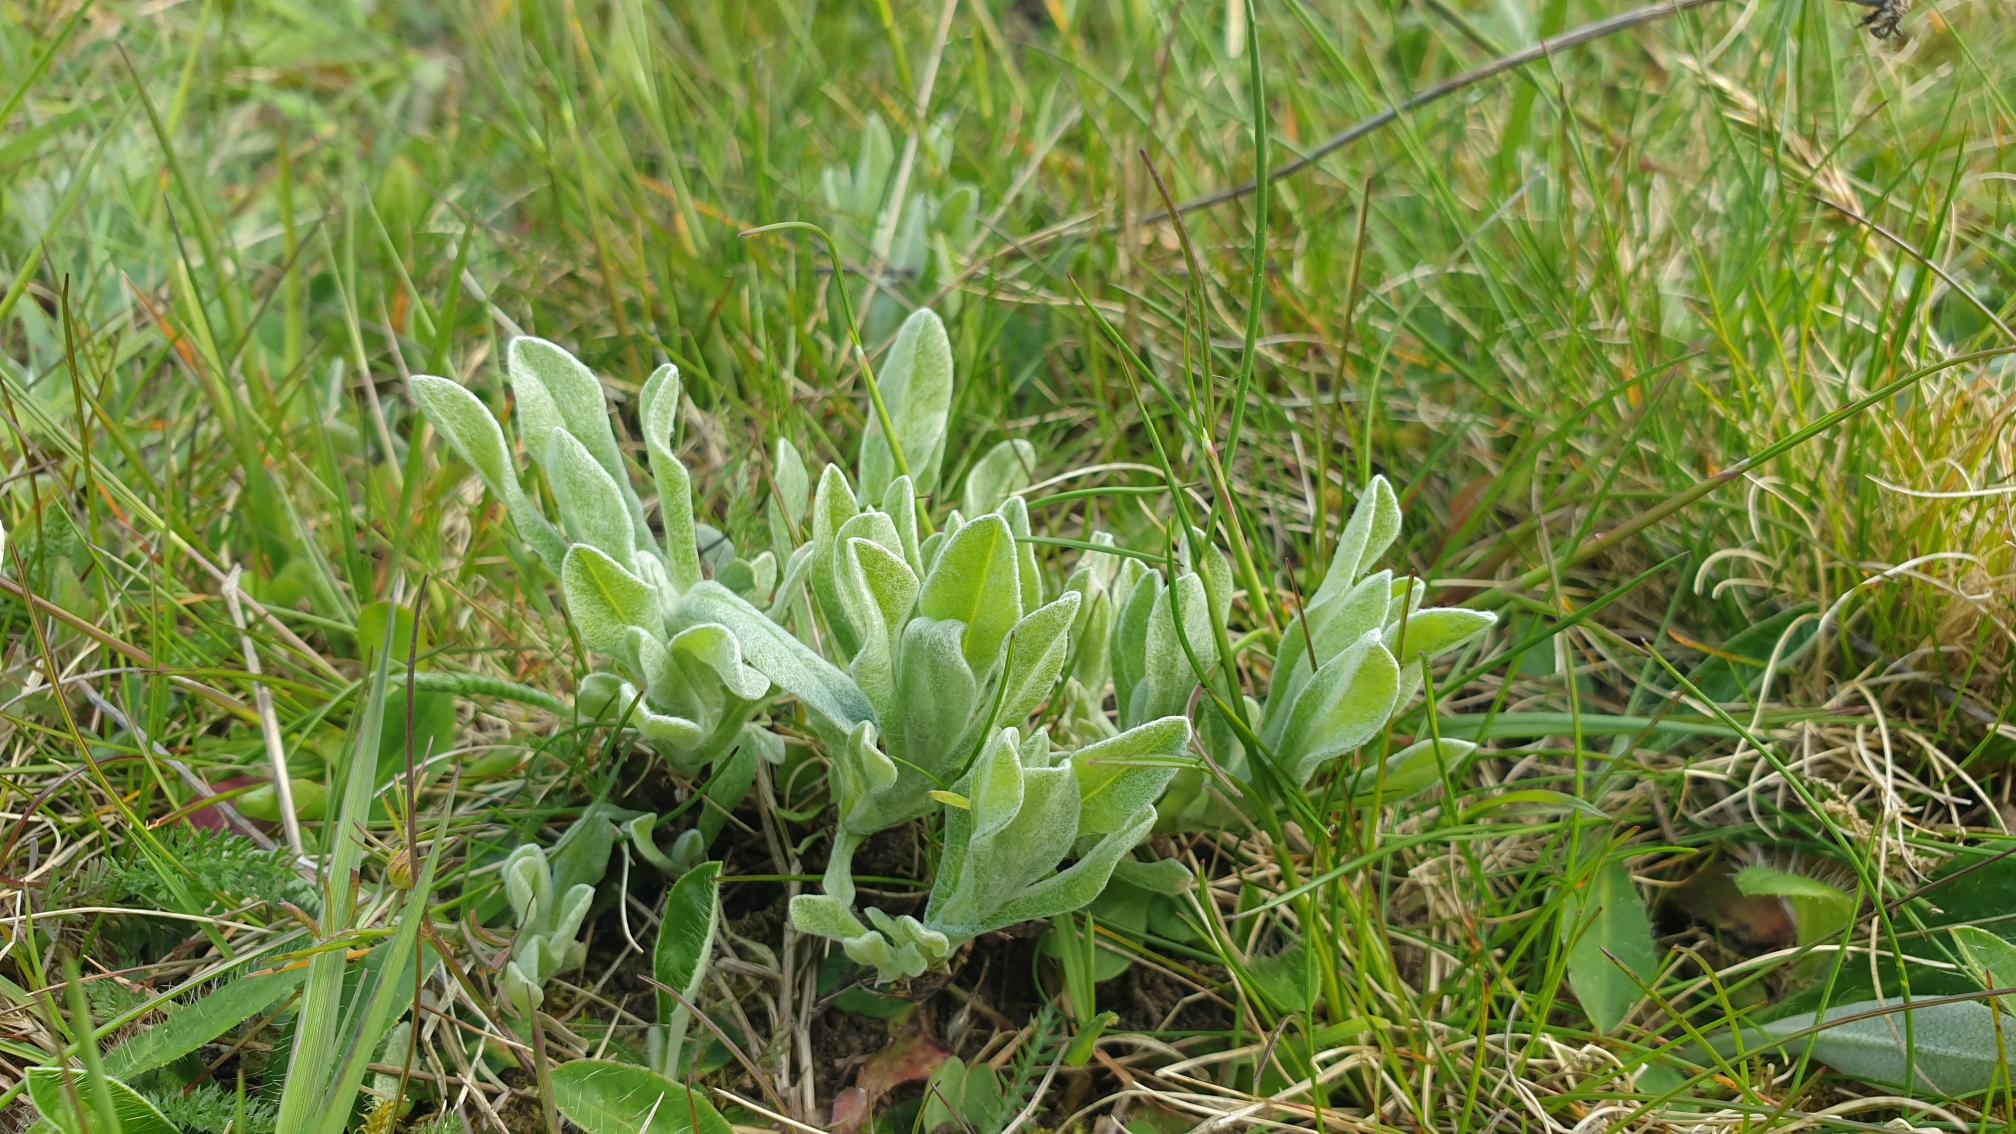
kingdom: Plantae
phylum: Tracheophyta
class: Magnoliopsida
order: Asterales
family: Asteraceae
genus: Helichrysum
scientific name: Helichrysum arenarium
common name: Gul evighedsblomst
